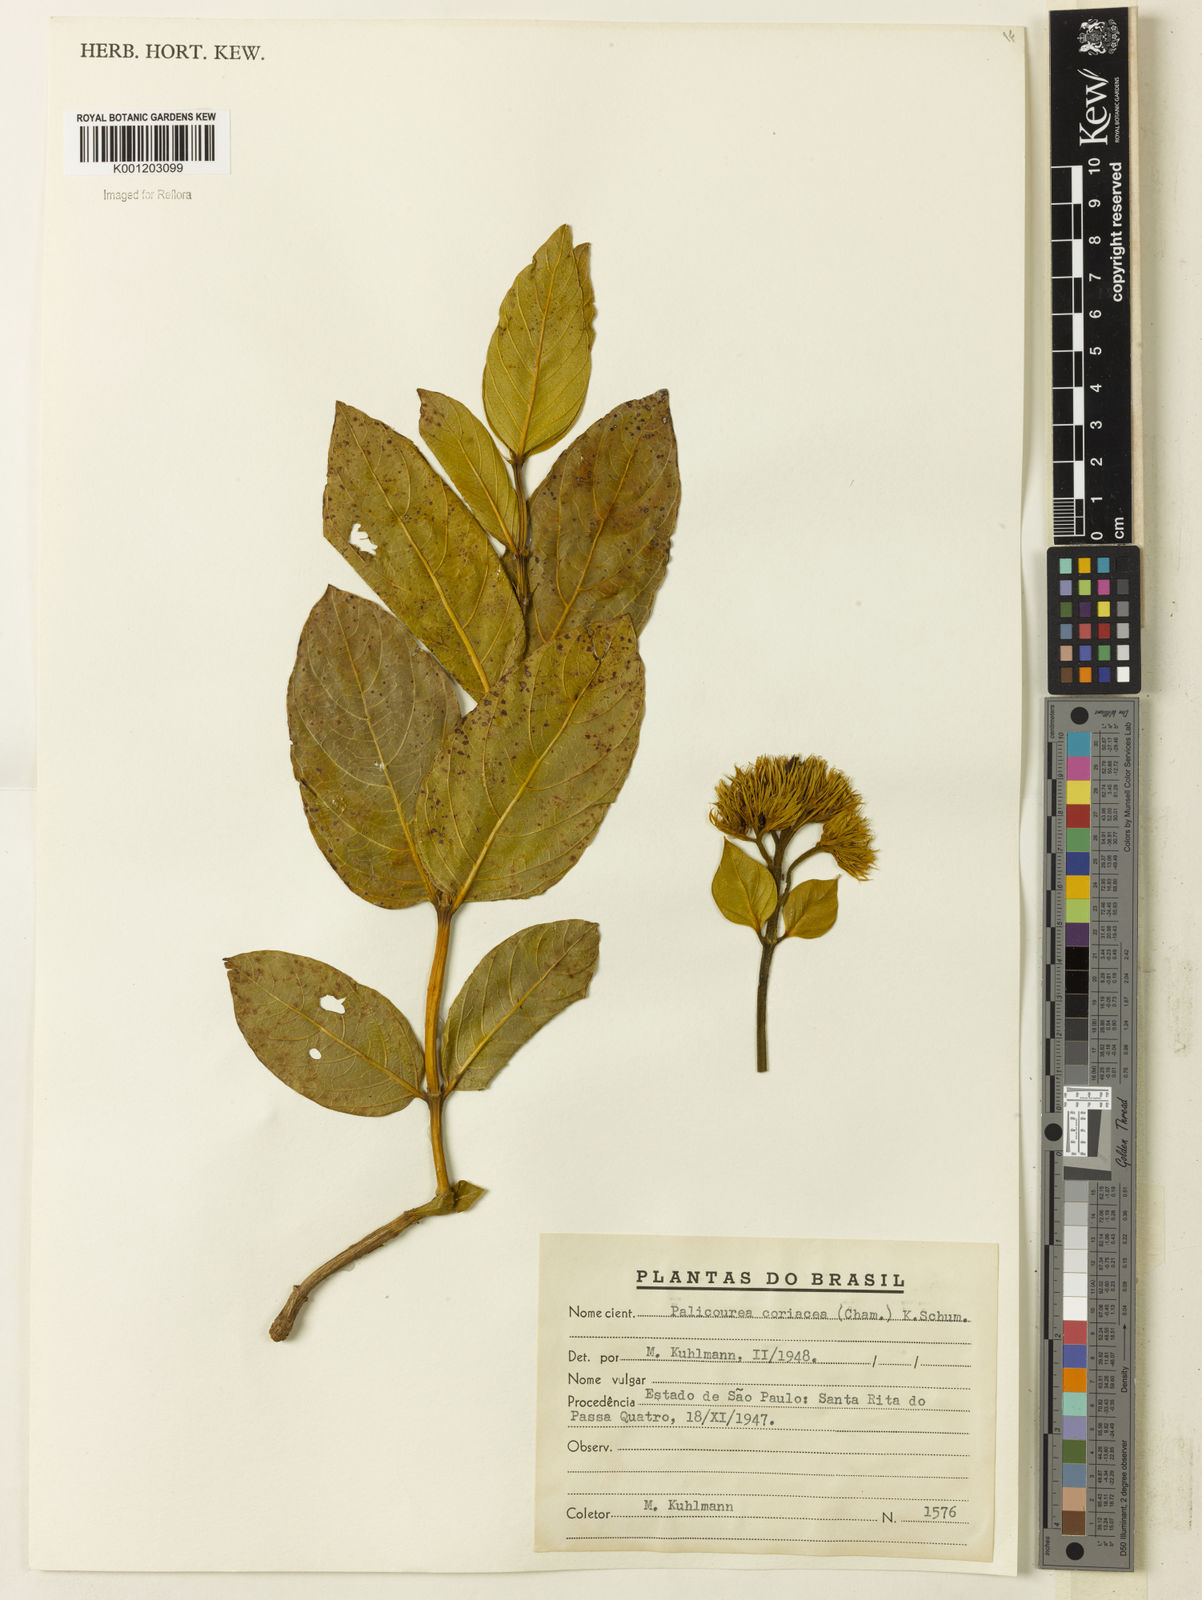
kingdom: Plantae
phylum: Tracheophyta
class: Magnoliopsida
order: Gentianales
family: Rubiaceae
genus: Palicourea
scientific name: Palicourea coriacea
